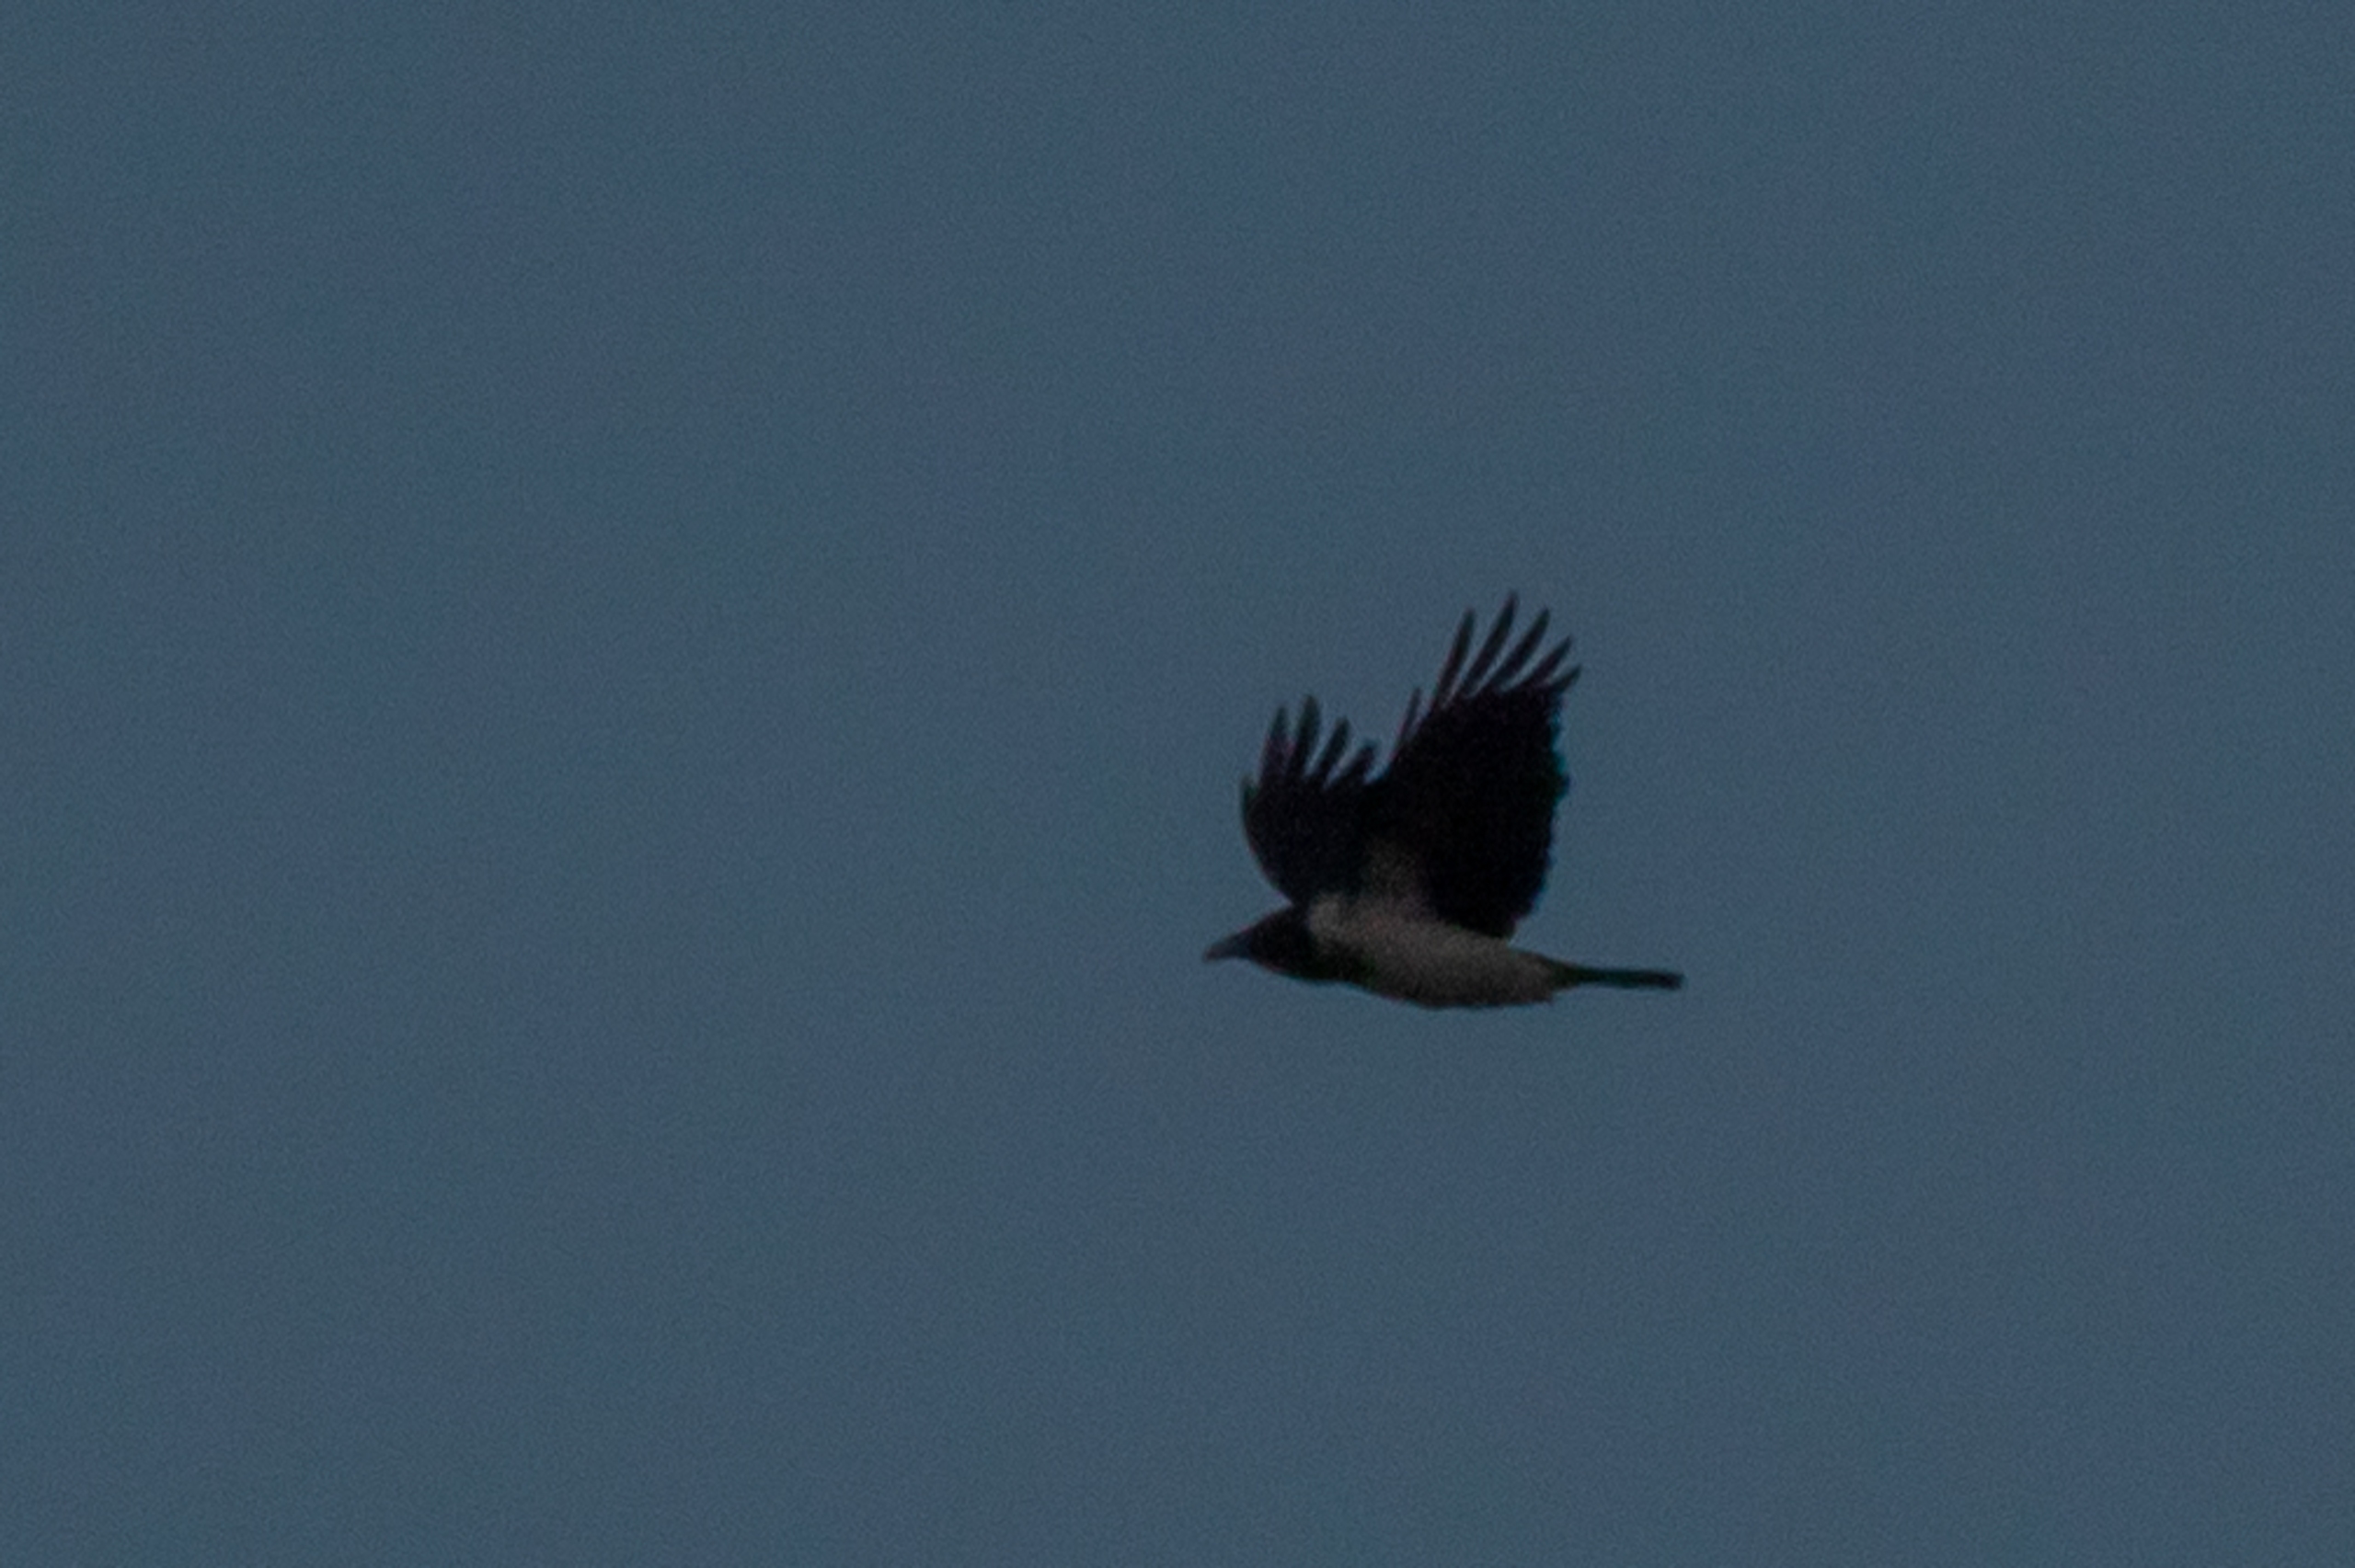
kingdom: Animalia
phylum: Chordata
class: Aves
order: Passeriformes
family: Corvidae
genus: Corvus
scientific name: Corvus cornix
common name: Gråkrage
